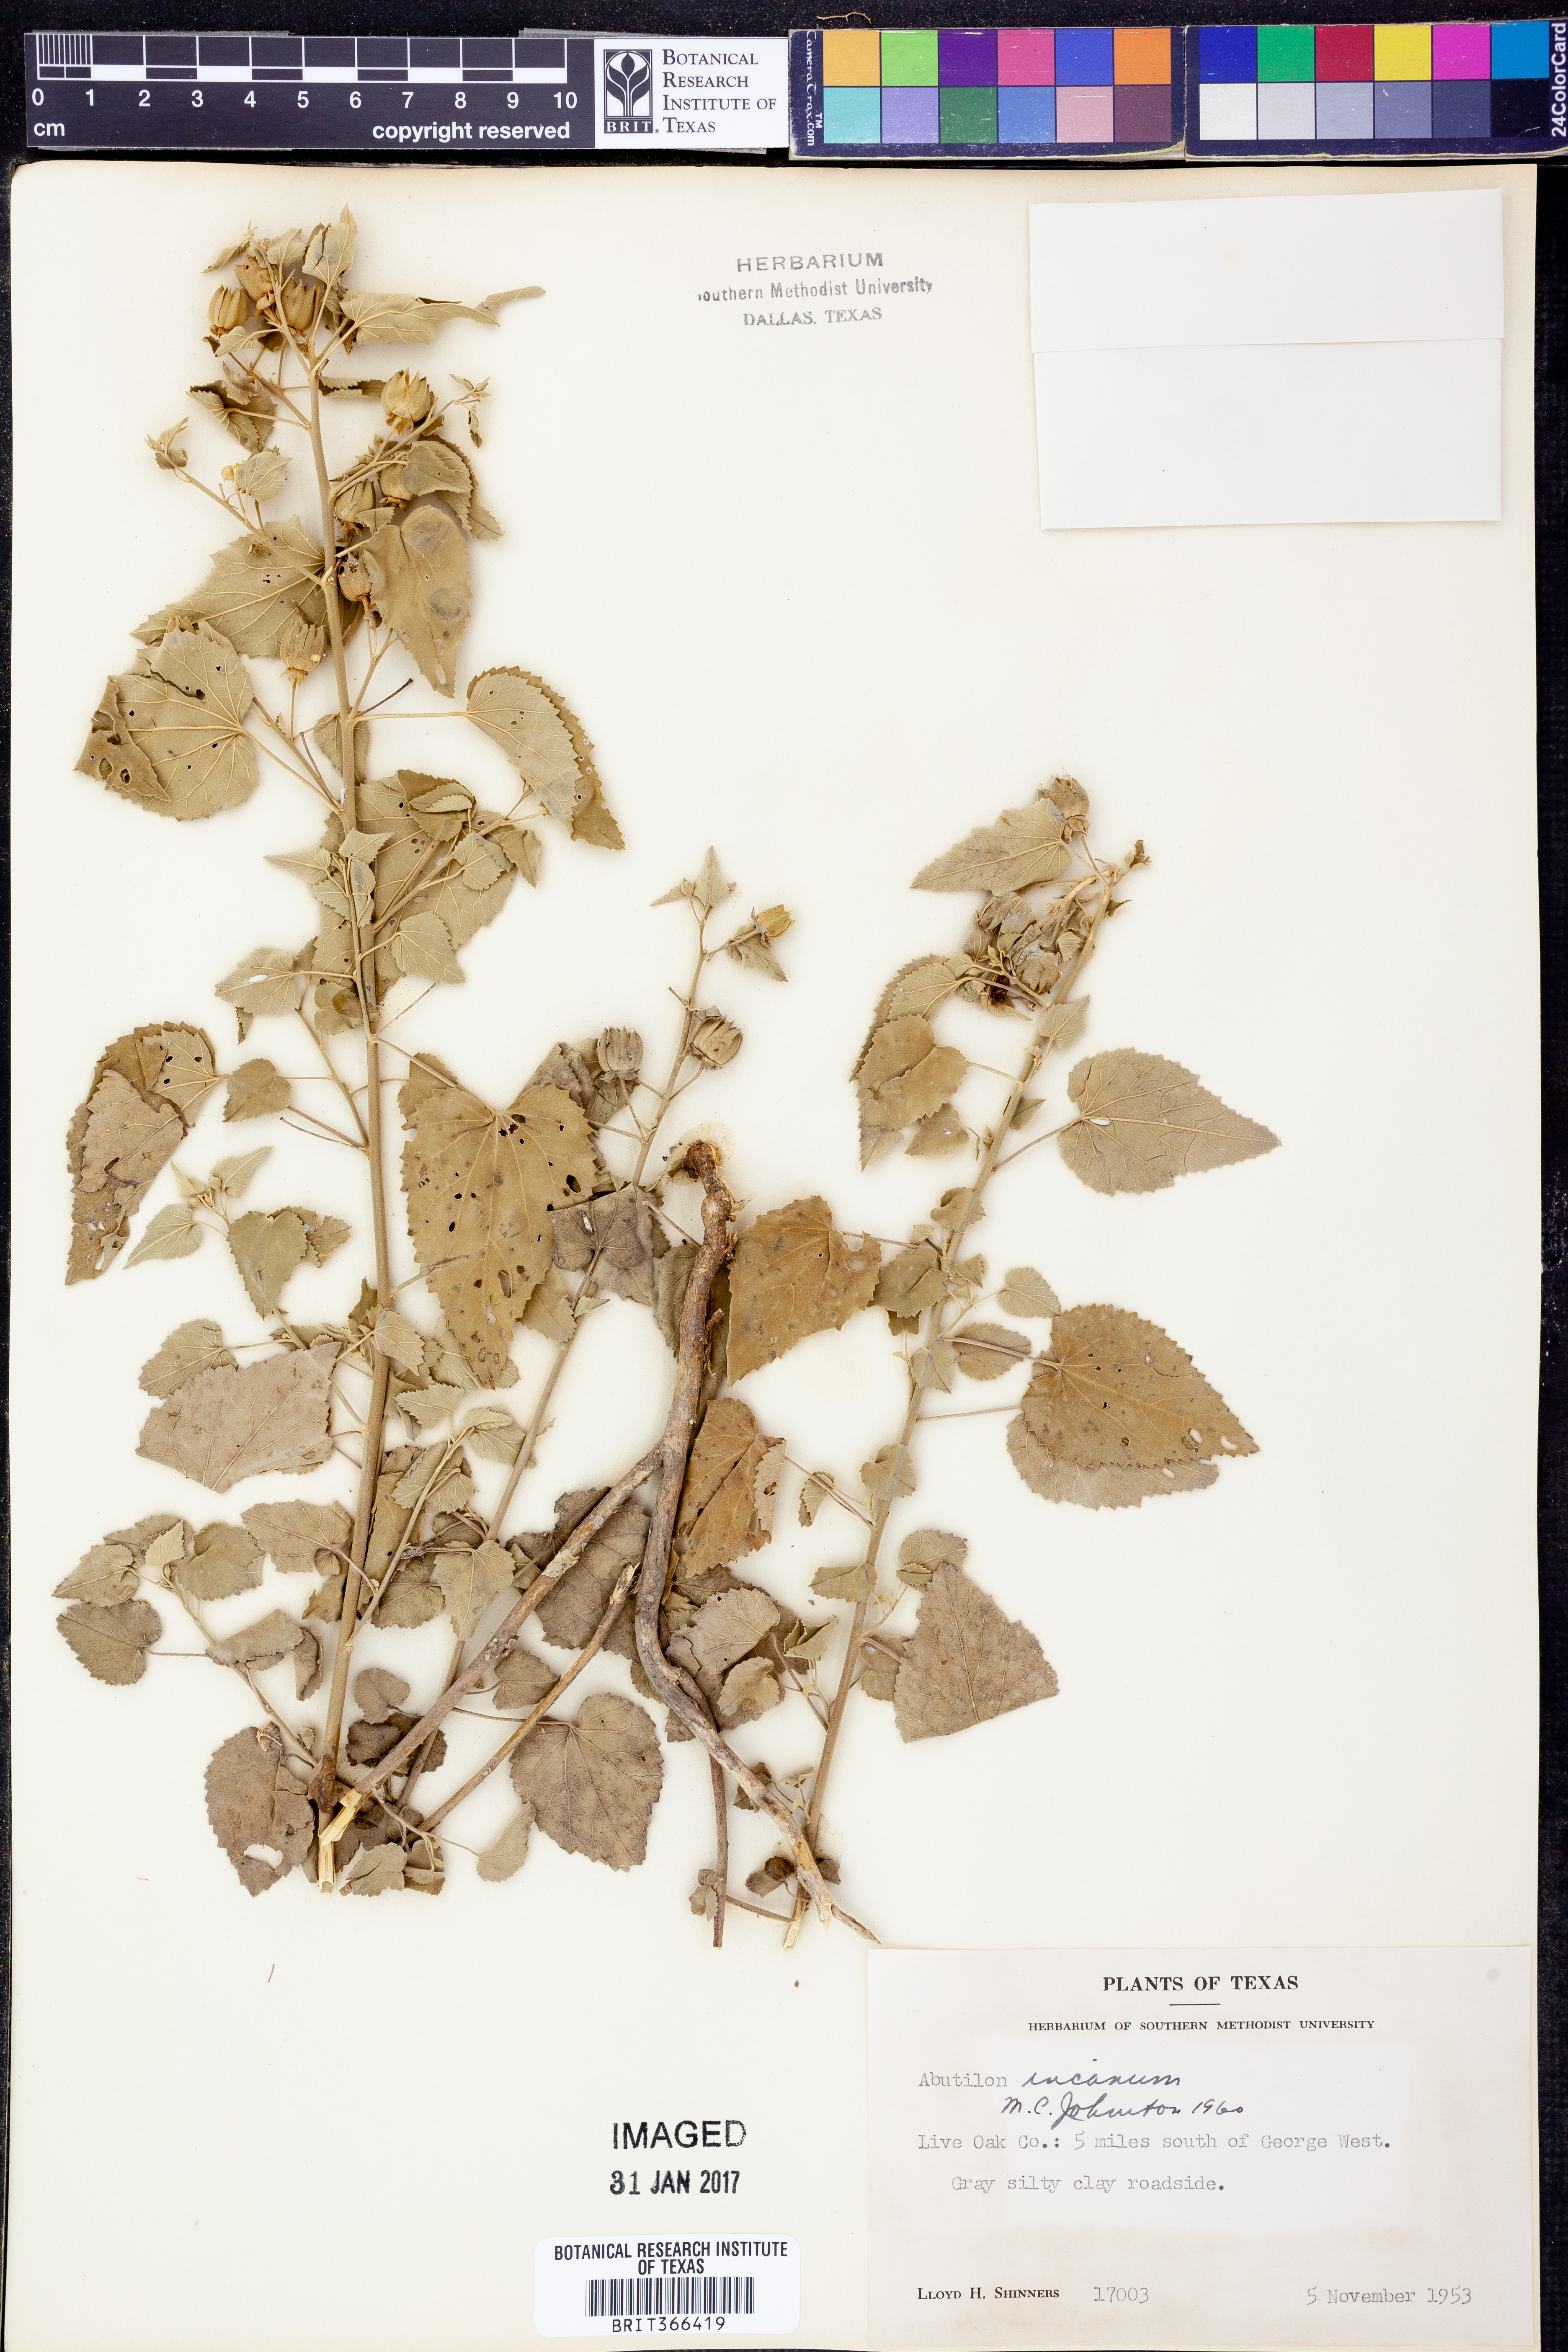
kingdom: Plantae
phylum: Tracheophyta
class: Magnoliopsida
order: Malvales
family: Malvaceae
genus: Abutilon
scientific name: Abutilon incanum
